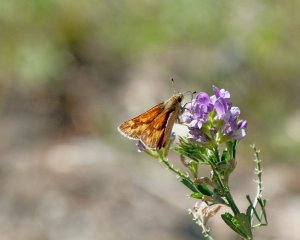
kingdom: Animalia
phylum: Arthropoda
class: Insecta
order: Lepidoptera
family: Hesperiidae
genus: Ochlodes
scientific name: Ochlodes sylvanoides
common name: Woodland Skipper
